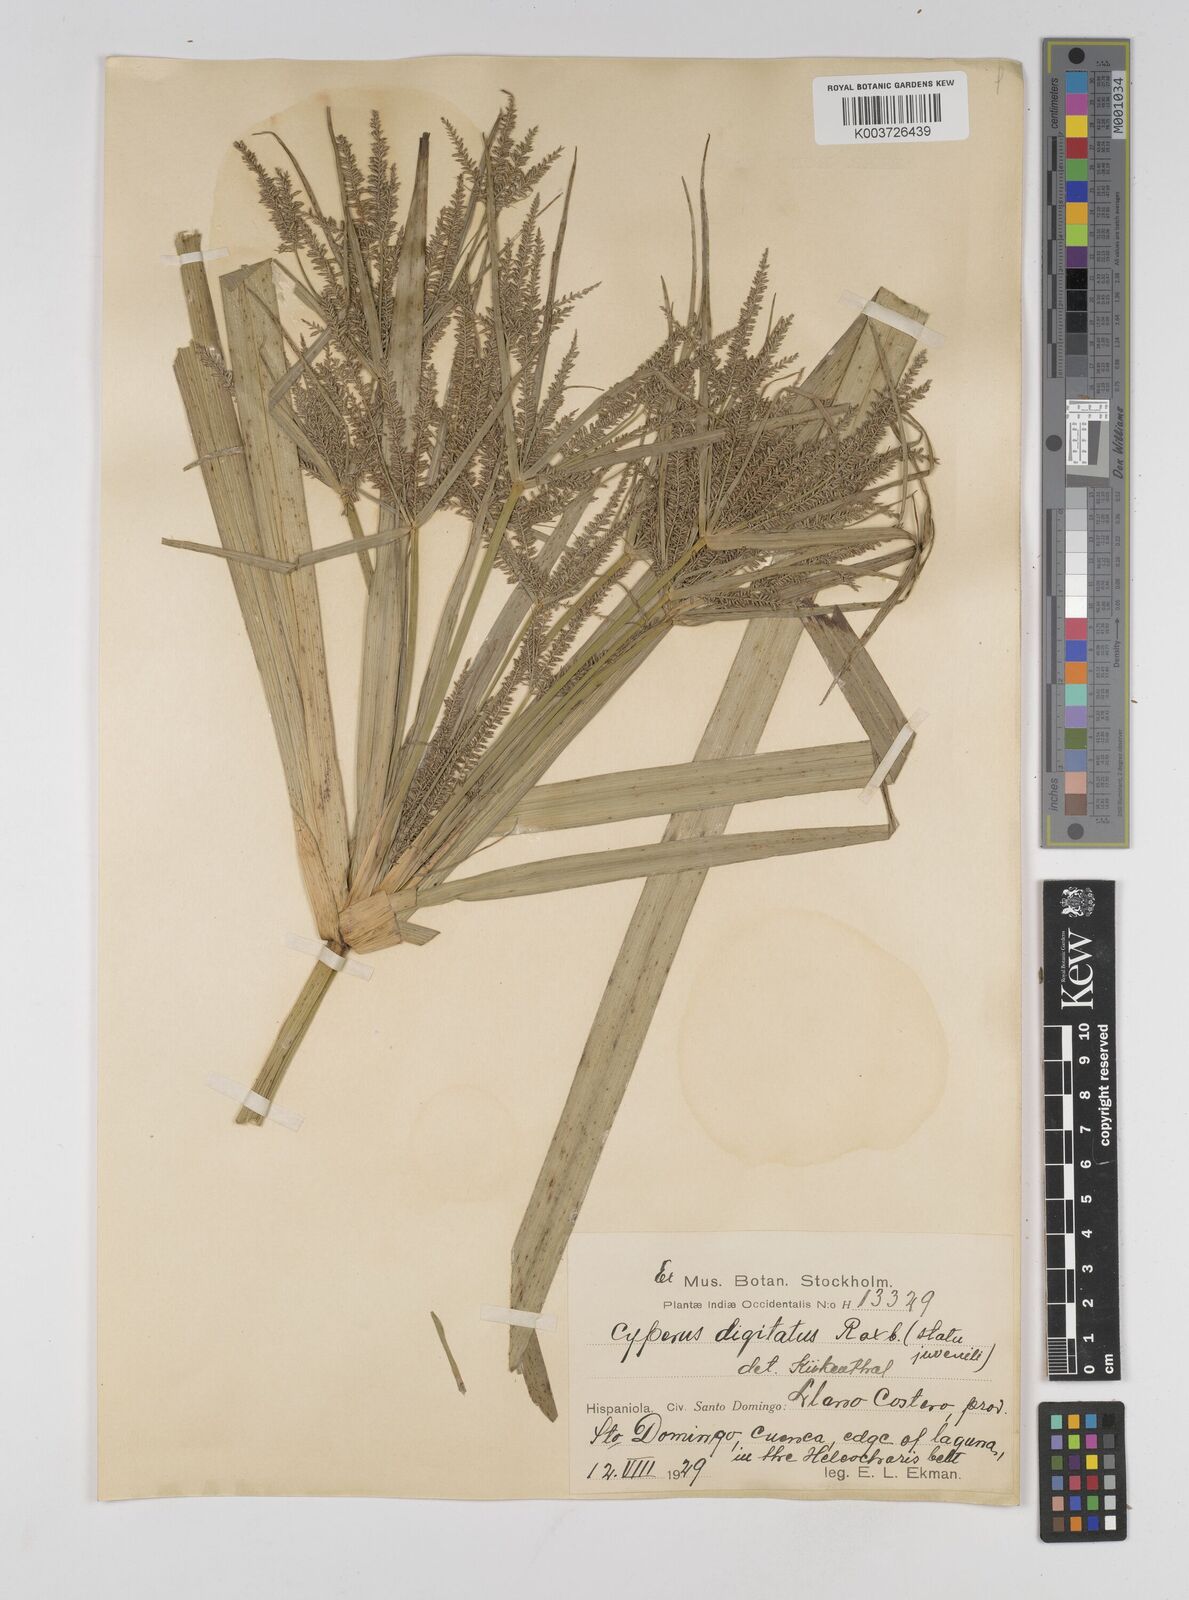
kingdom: Plantae
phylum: Tracheophyta
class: Liliopsida
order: Poales
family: Cyperaceae
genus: Cyperus
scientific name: Cyperus digitatus
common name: Finger flatsedge
